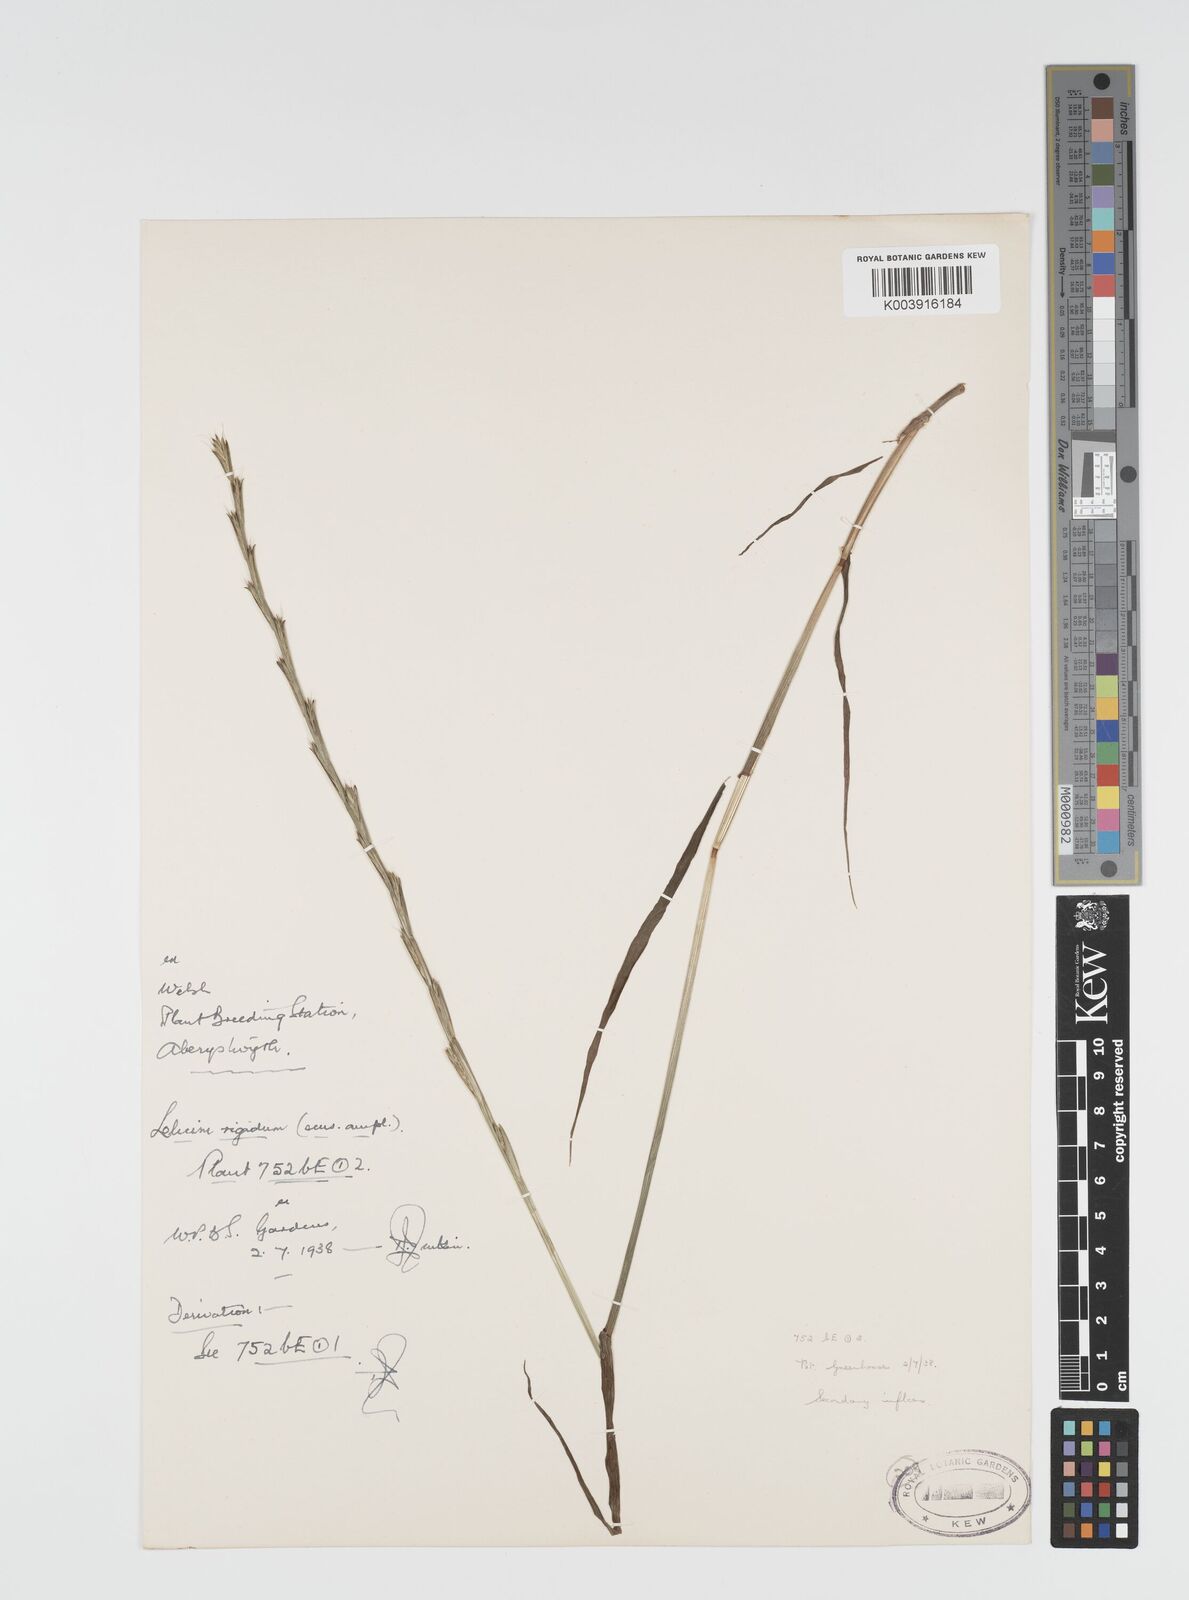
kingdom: Plantae
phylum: Tracheophyta
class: Liliopsida
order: Poales
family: Poaceae
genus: Lolium
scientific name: Lolium rigidum
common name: Wimmera ryegrass
